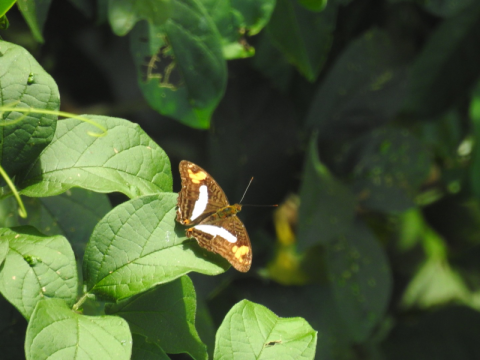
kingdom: Animalia
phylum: Arthropoda
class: Insecta
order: Lepidoptera
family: Nymphalidae
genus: Limenitis
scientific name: Limenitis barnesia
